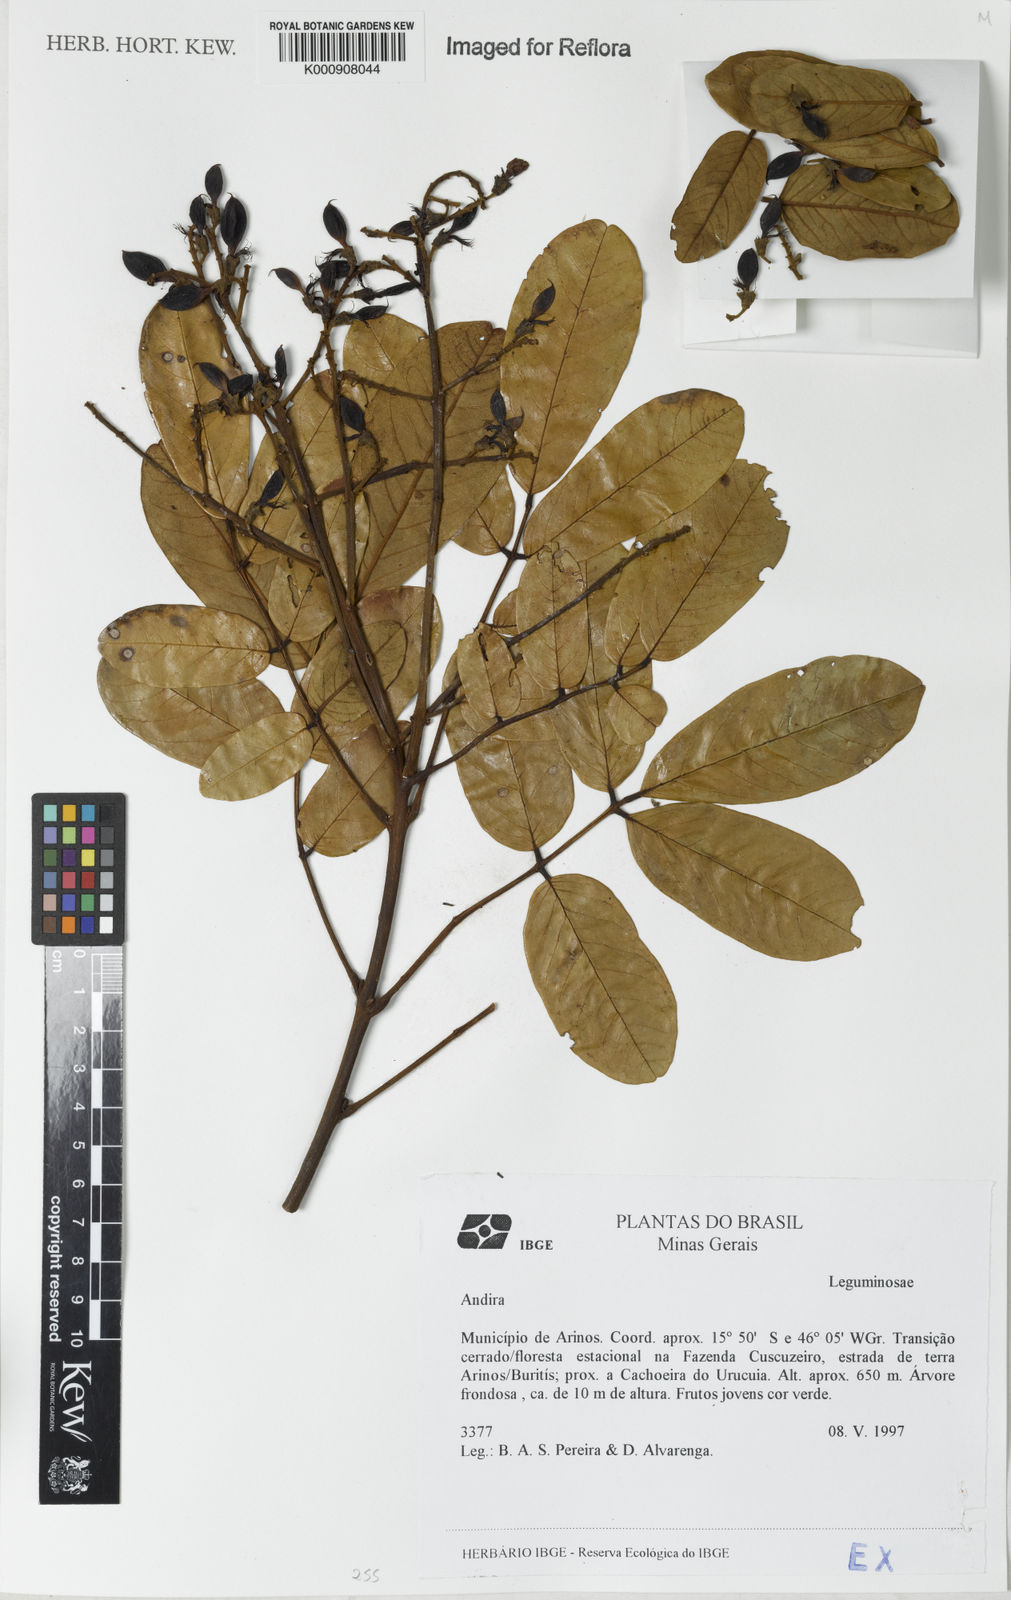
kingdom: Plantae
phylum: Tracheophyta
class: Magnoliopsida
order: Fabales
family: Fabaceae
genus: Andira
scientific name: Andira
